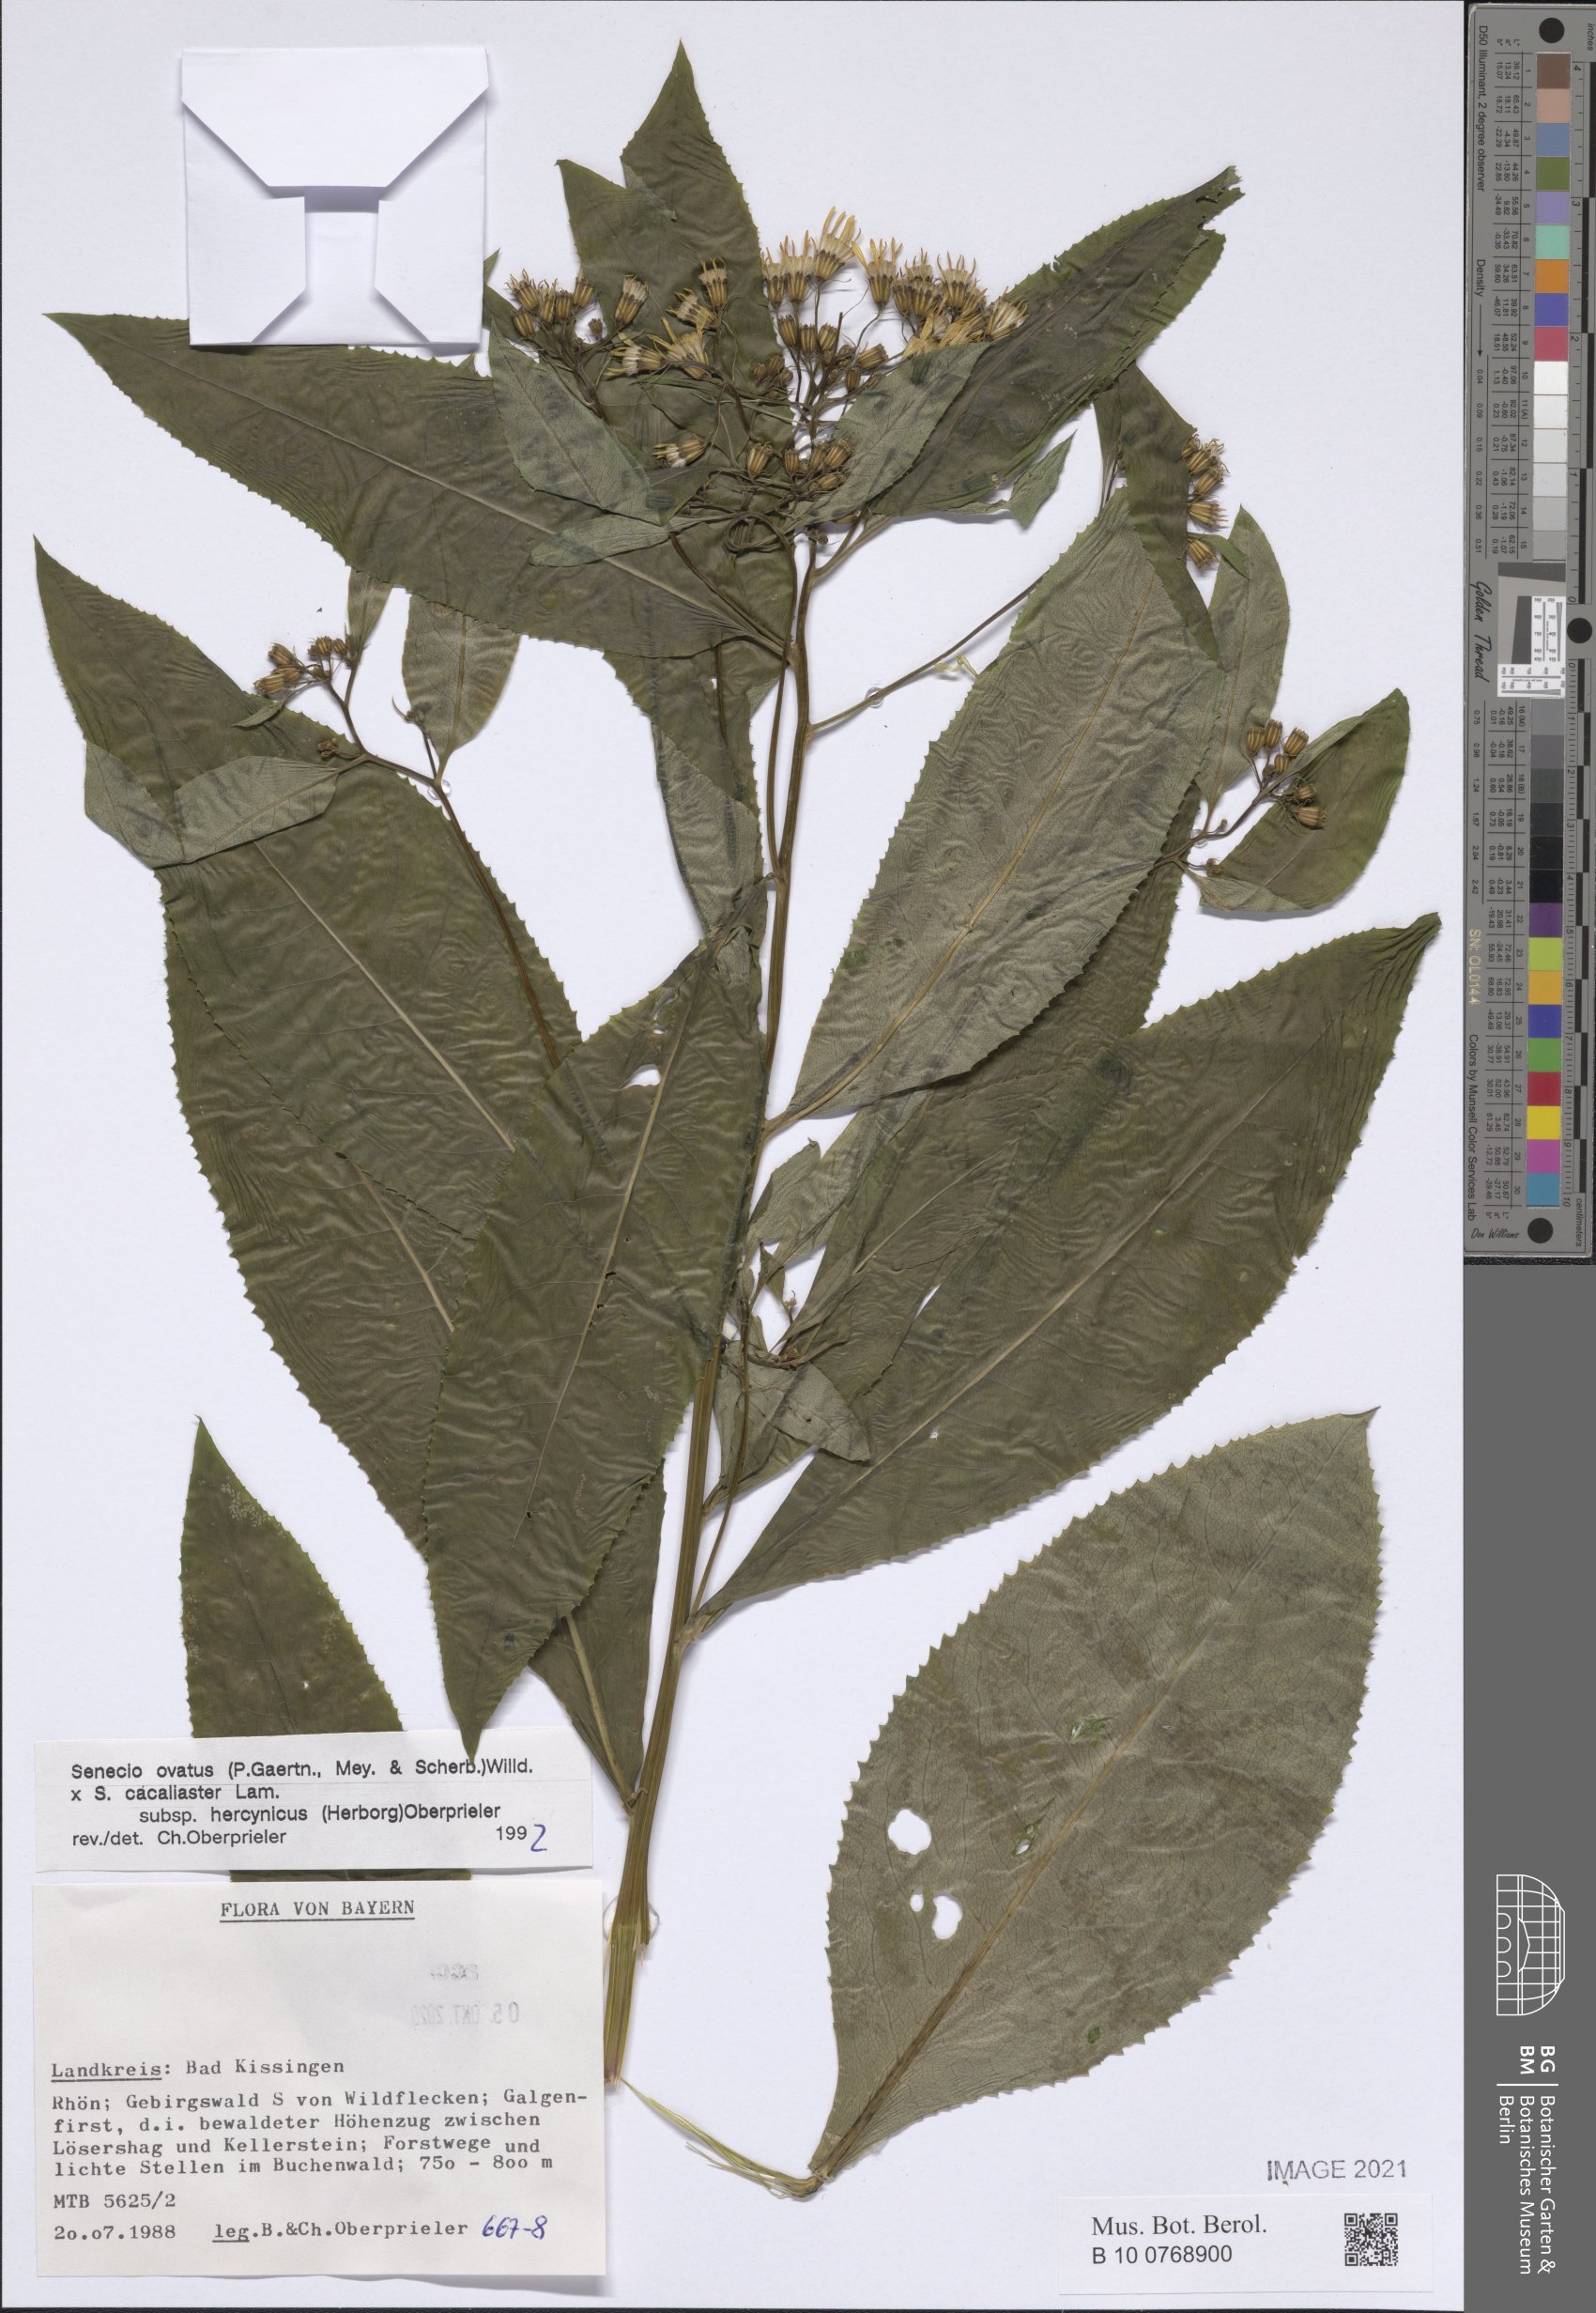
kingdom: Plantae
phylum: Tracheophyta
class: Magnoliopsida
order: Asterales
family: Asteraceae
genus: Senecio
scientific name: Senecio ovatus
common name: Wood ragwort
